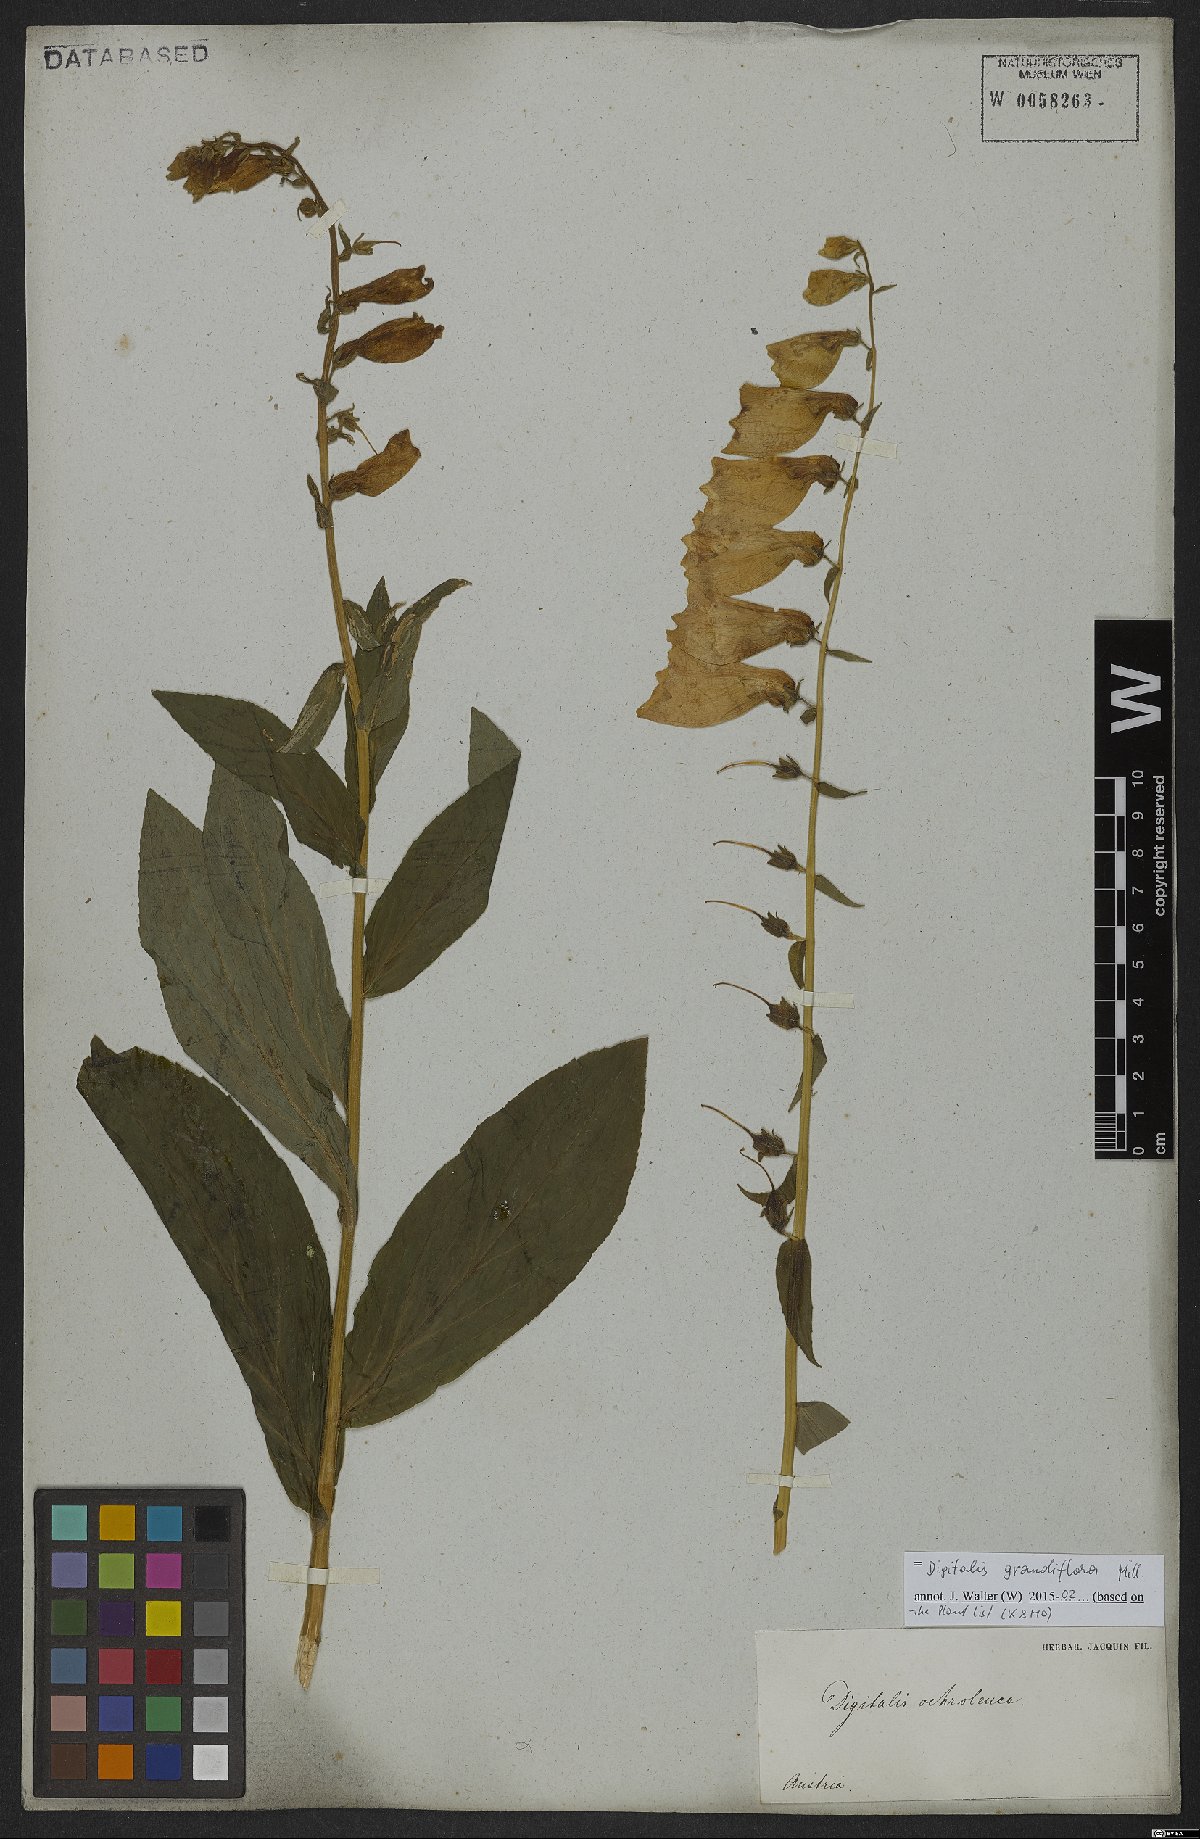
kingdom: Plantae
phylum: Tracheophyta
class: Magnoliopsida
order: Lamiales
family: Plantaginaceae
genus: Digitalis
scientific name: Digitalis grandiflora
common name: Yellow foxglove
